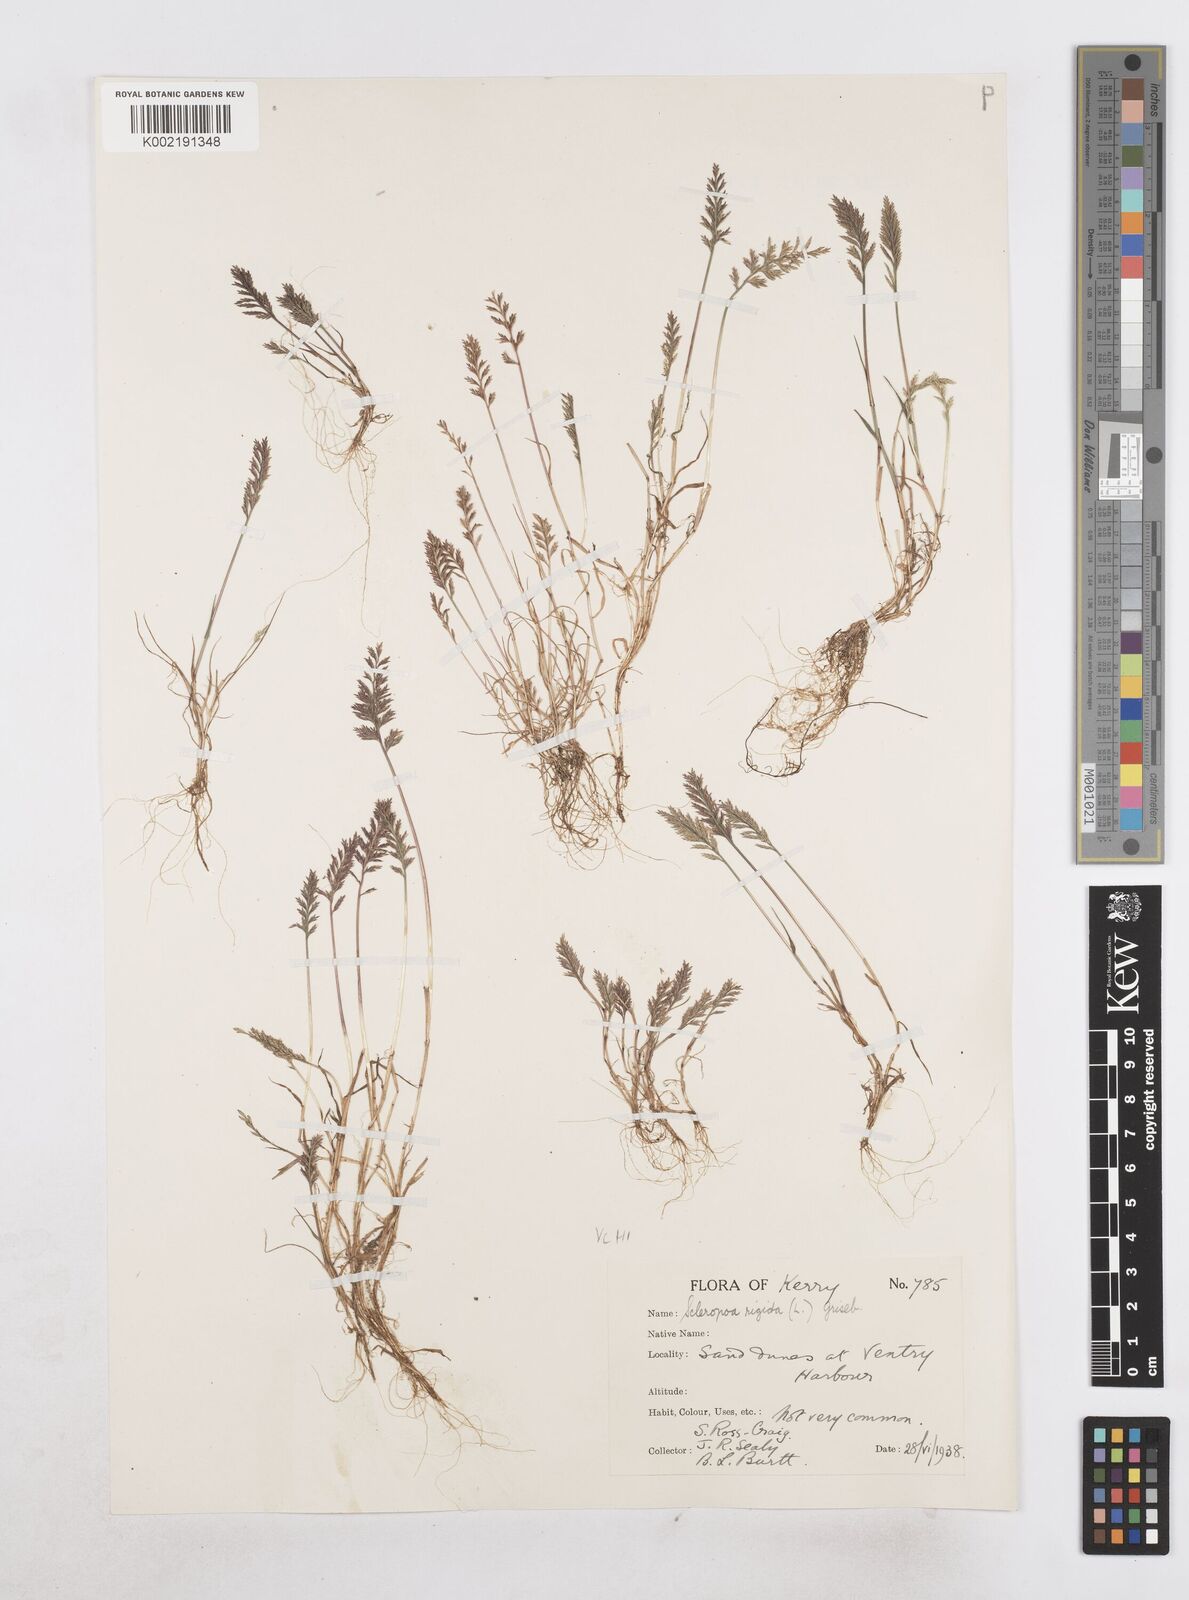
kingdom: Plantae
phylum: Tracheophyta
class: Liliopsida
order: Poales
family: Poaceae
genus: Catapodium
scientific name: Catapodium rigidum
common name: Fern-grass
